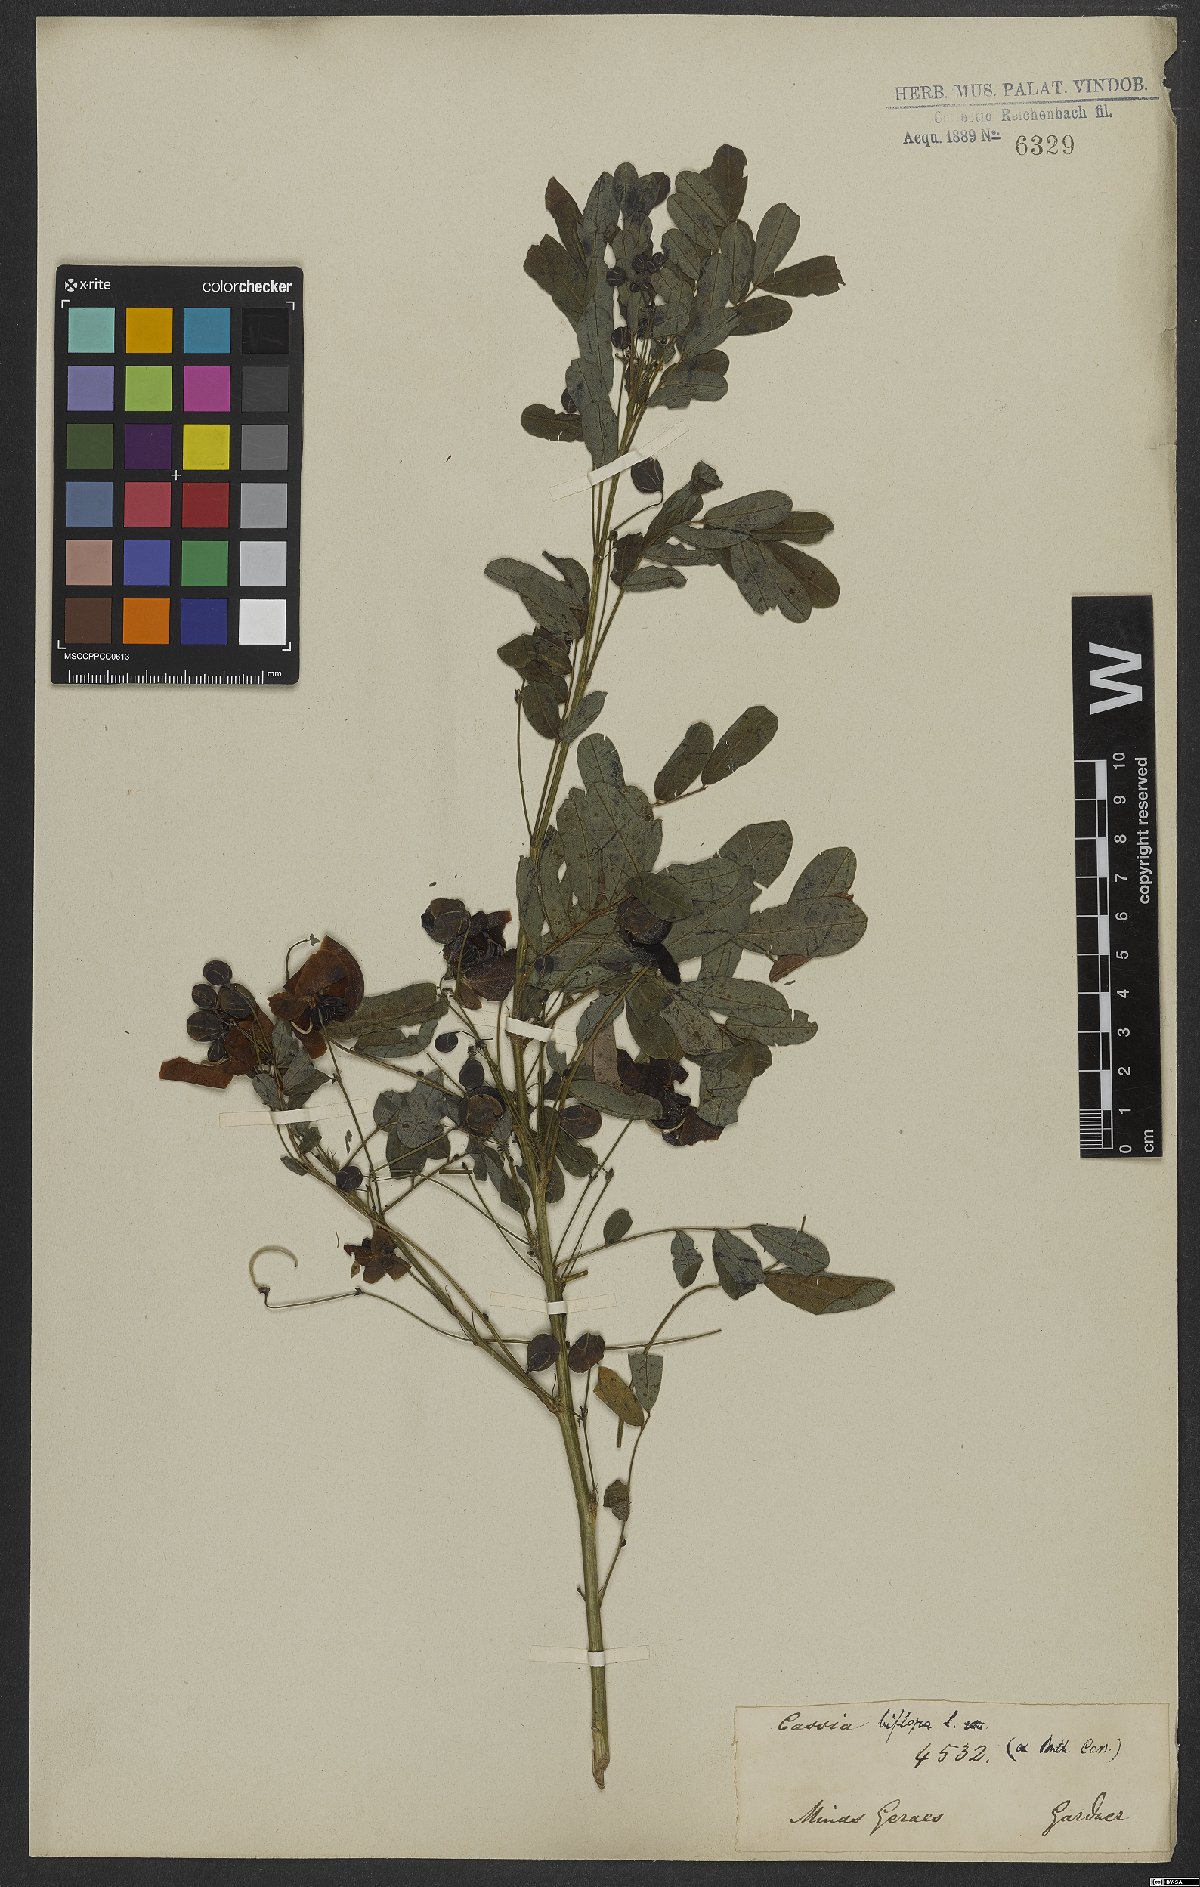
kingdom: Plantae
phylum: Tracheophyta
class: Magnoliopsida
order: Fabales
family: Fabaceae
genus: Senna
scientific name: Senna pallida
